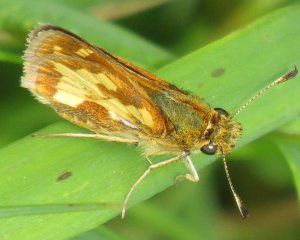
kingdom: Animalia
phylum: Arthropoda
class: Insecta
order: Lepidoptera
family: Hesperiidae
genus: Polites
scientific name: Polites coras
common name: Peck's Skipper
